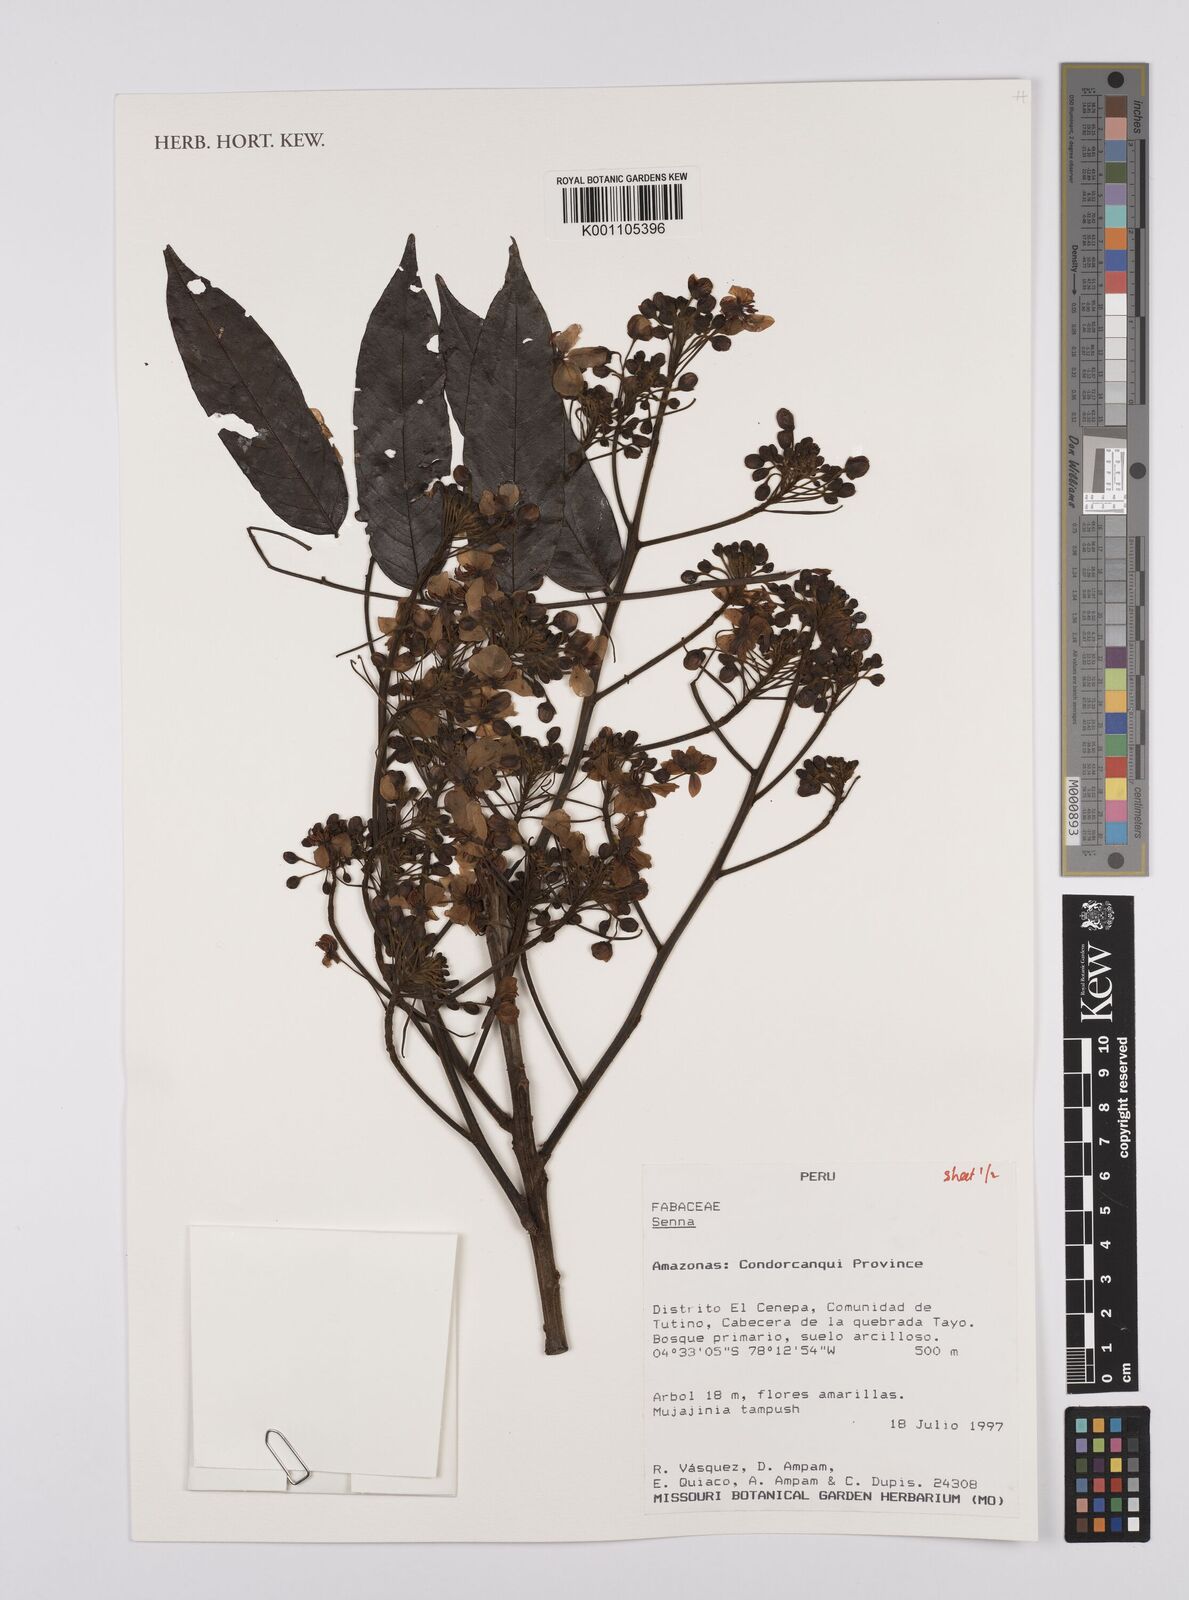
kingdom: Plantae
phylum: Tracheophyta
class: Magnoliopsida
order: Fabales
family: Fabaceae
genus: Senna
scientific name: Senna
